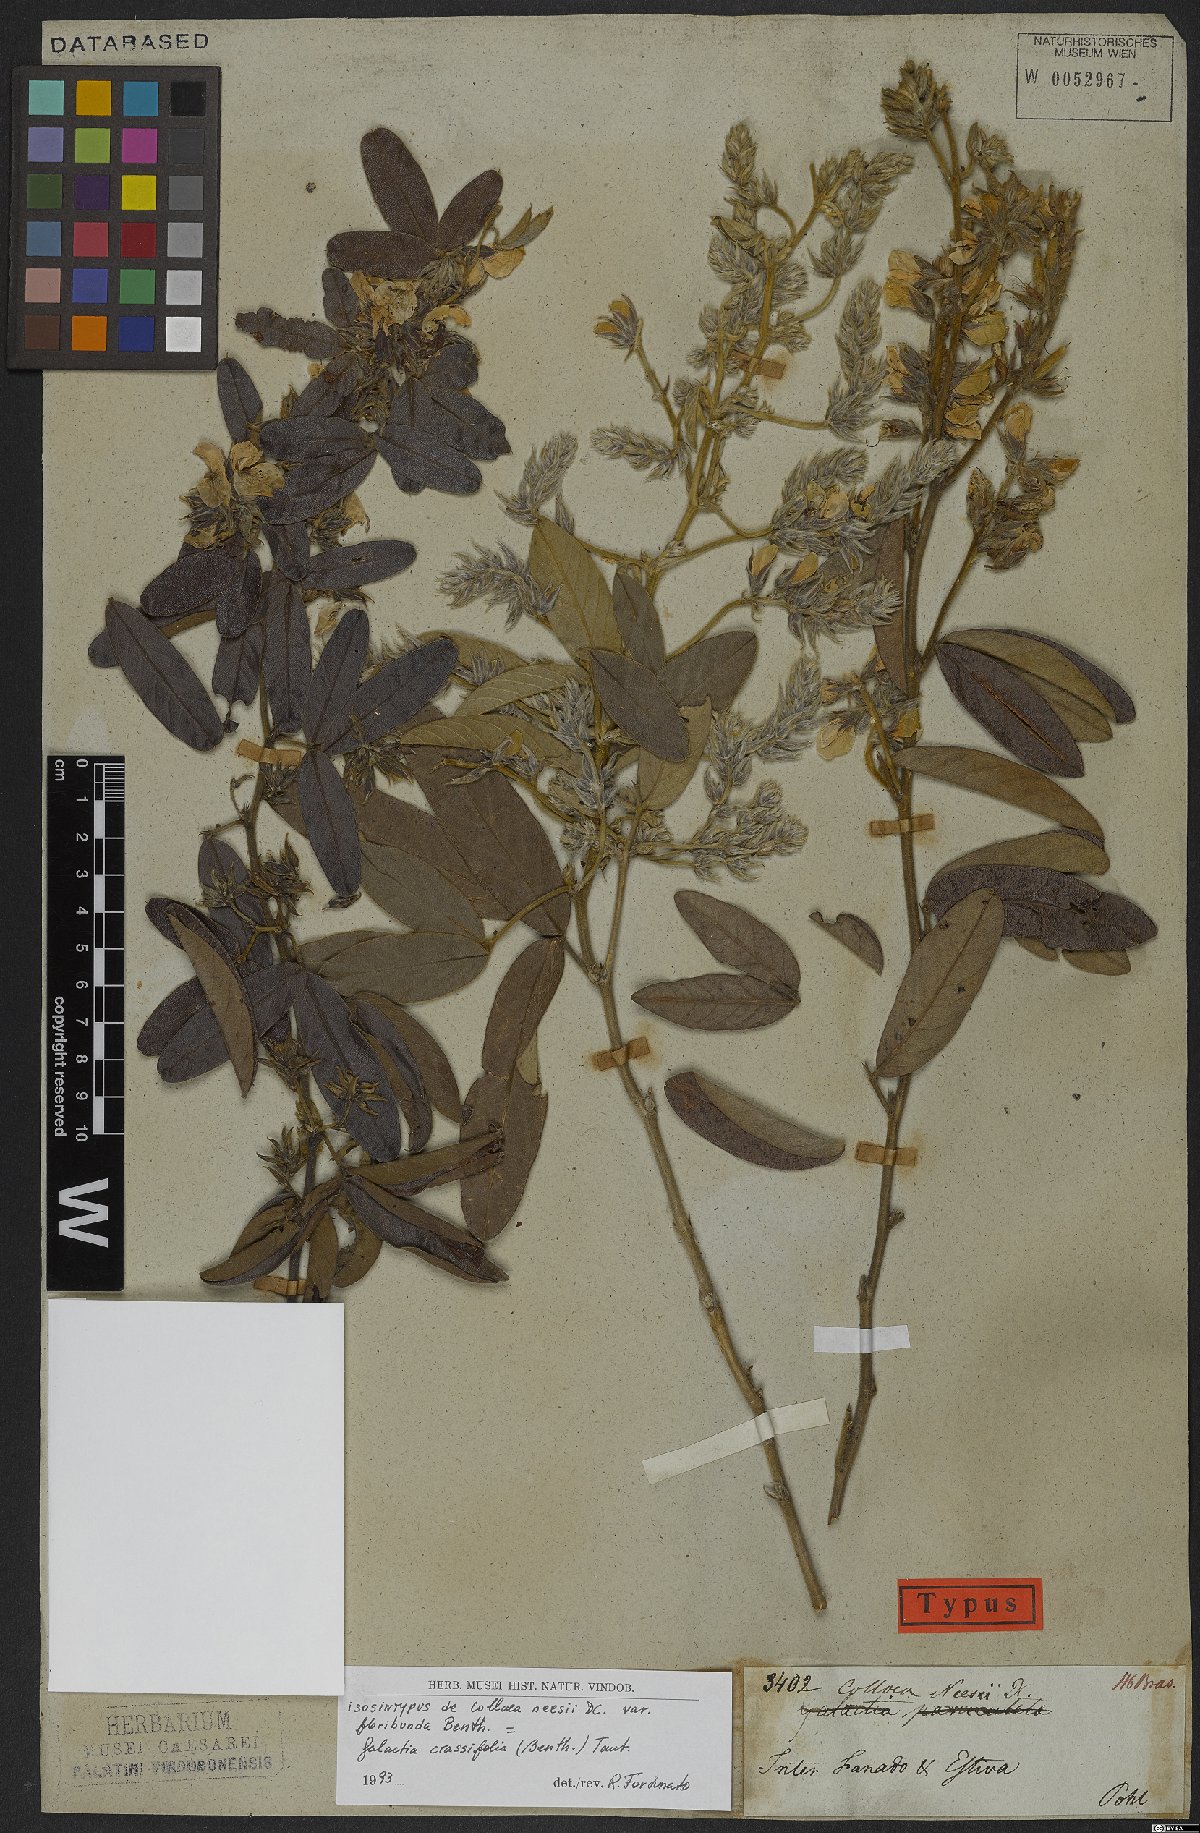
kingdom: Plantae
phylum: Tracheophyta
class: Magnoliopsida
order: Fabales
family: Fabaceae
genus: Betencourtia
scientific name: Betencourtia crassifolia
